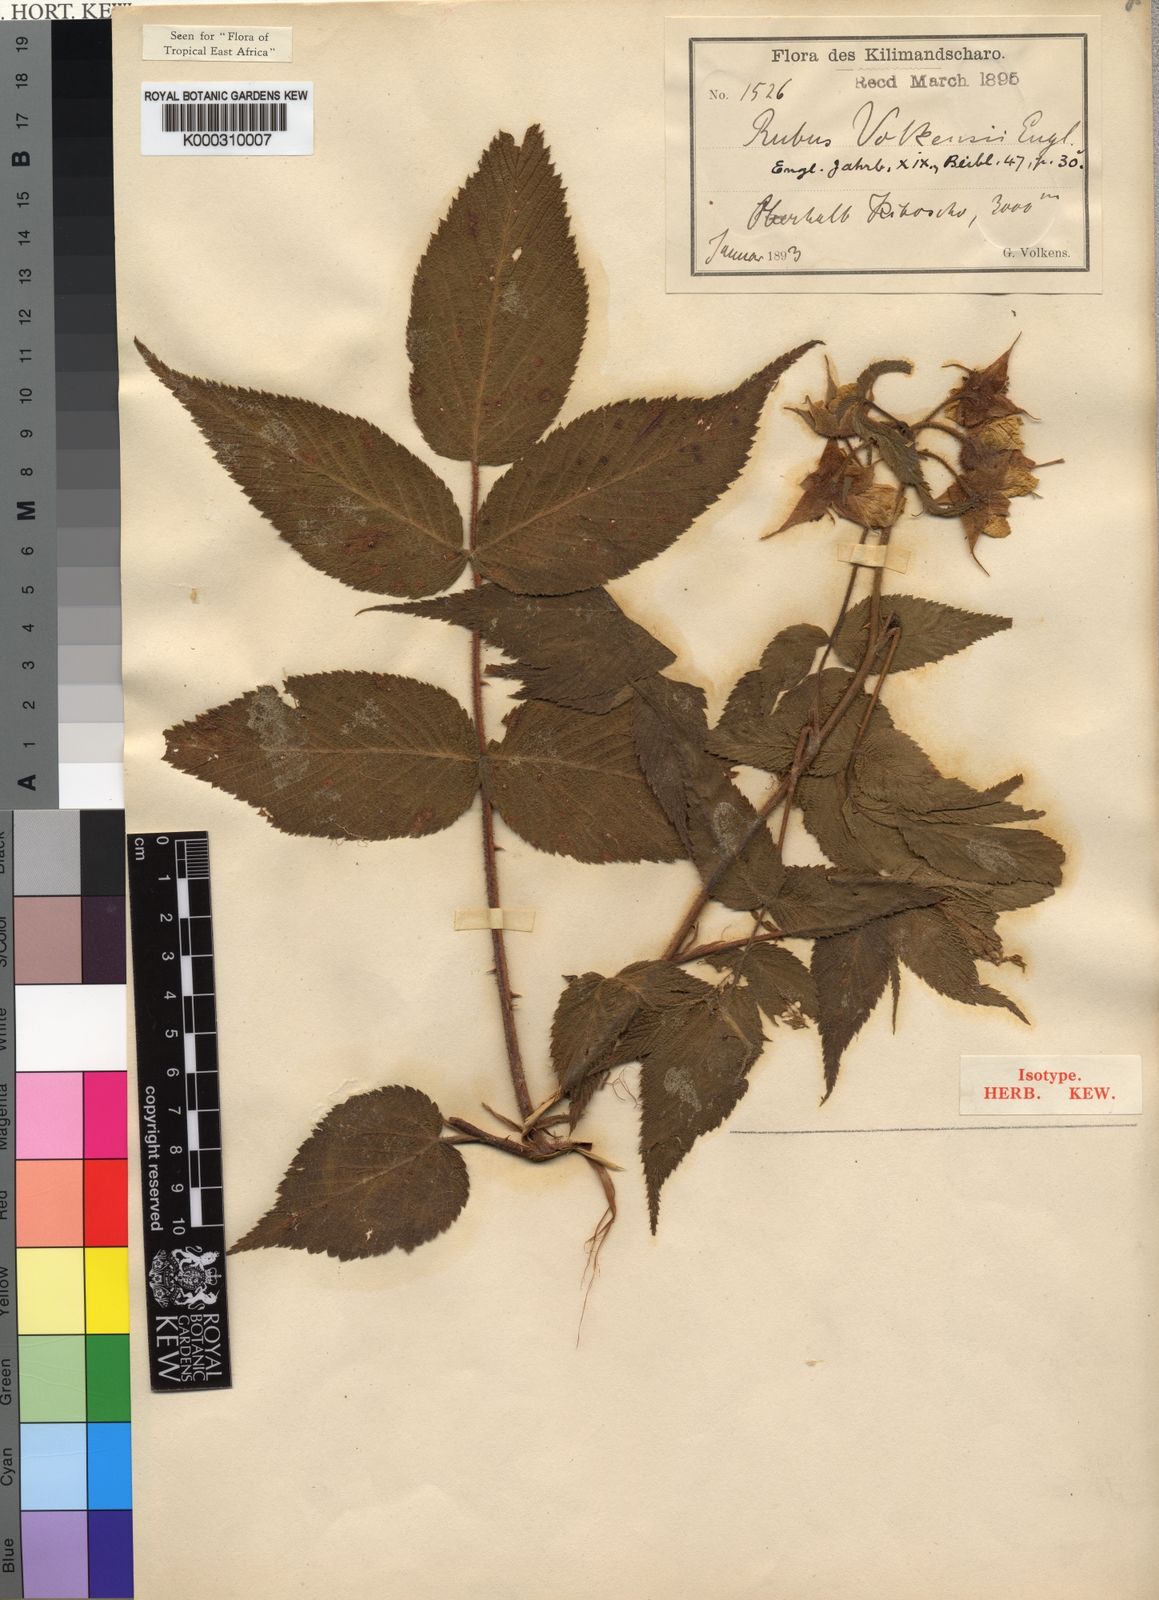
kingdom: Plantae
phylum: Tracheophyta
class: Magnoliopsida
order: Rosales
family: Rosaceae
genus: Rubus
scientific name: Rubus volkensii
